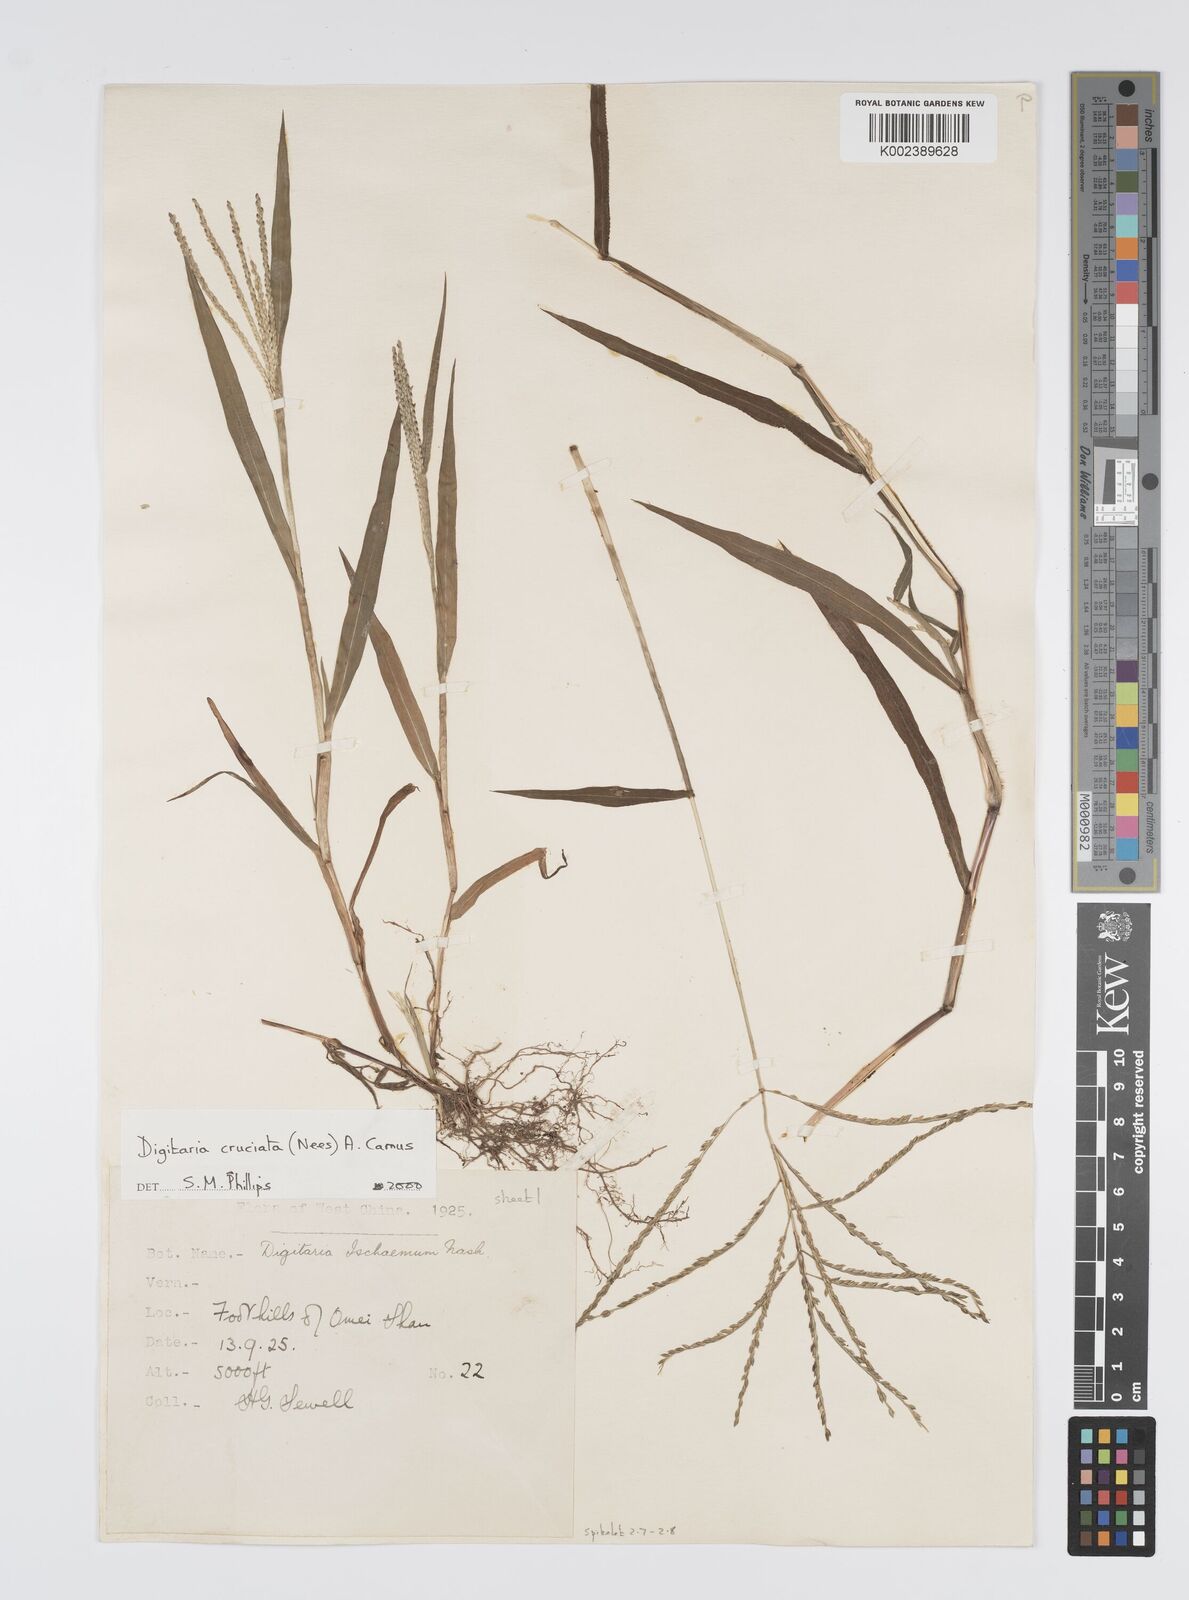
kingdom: Plantae
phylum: Tracheophyta
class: Liliopsida
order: Poales
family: Poaceae
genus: Digitaria
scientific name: Digitaria cruciata
